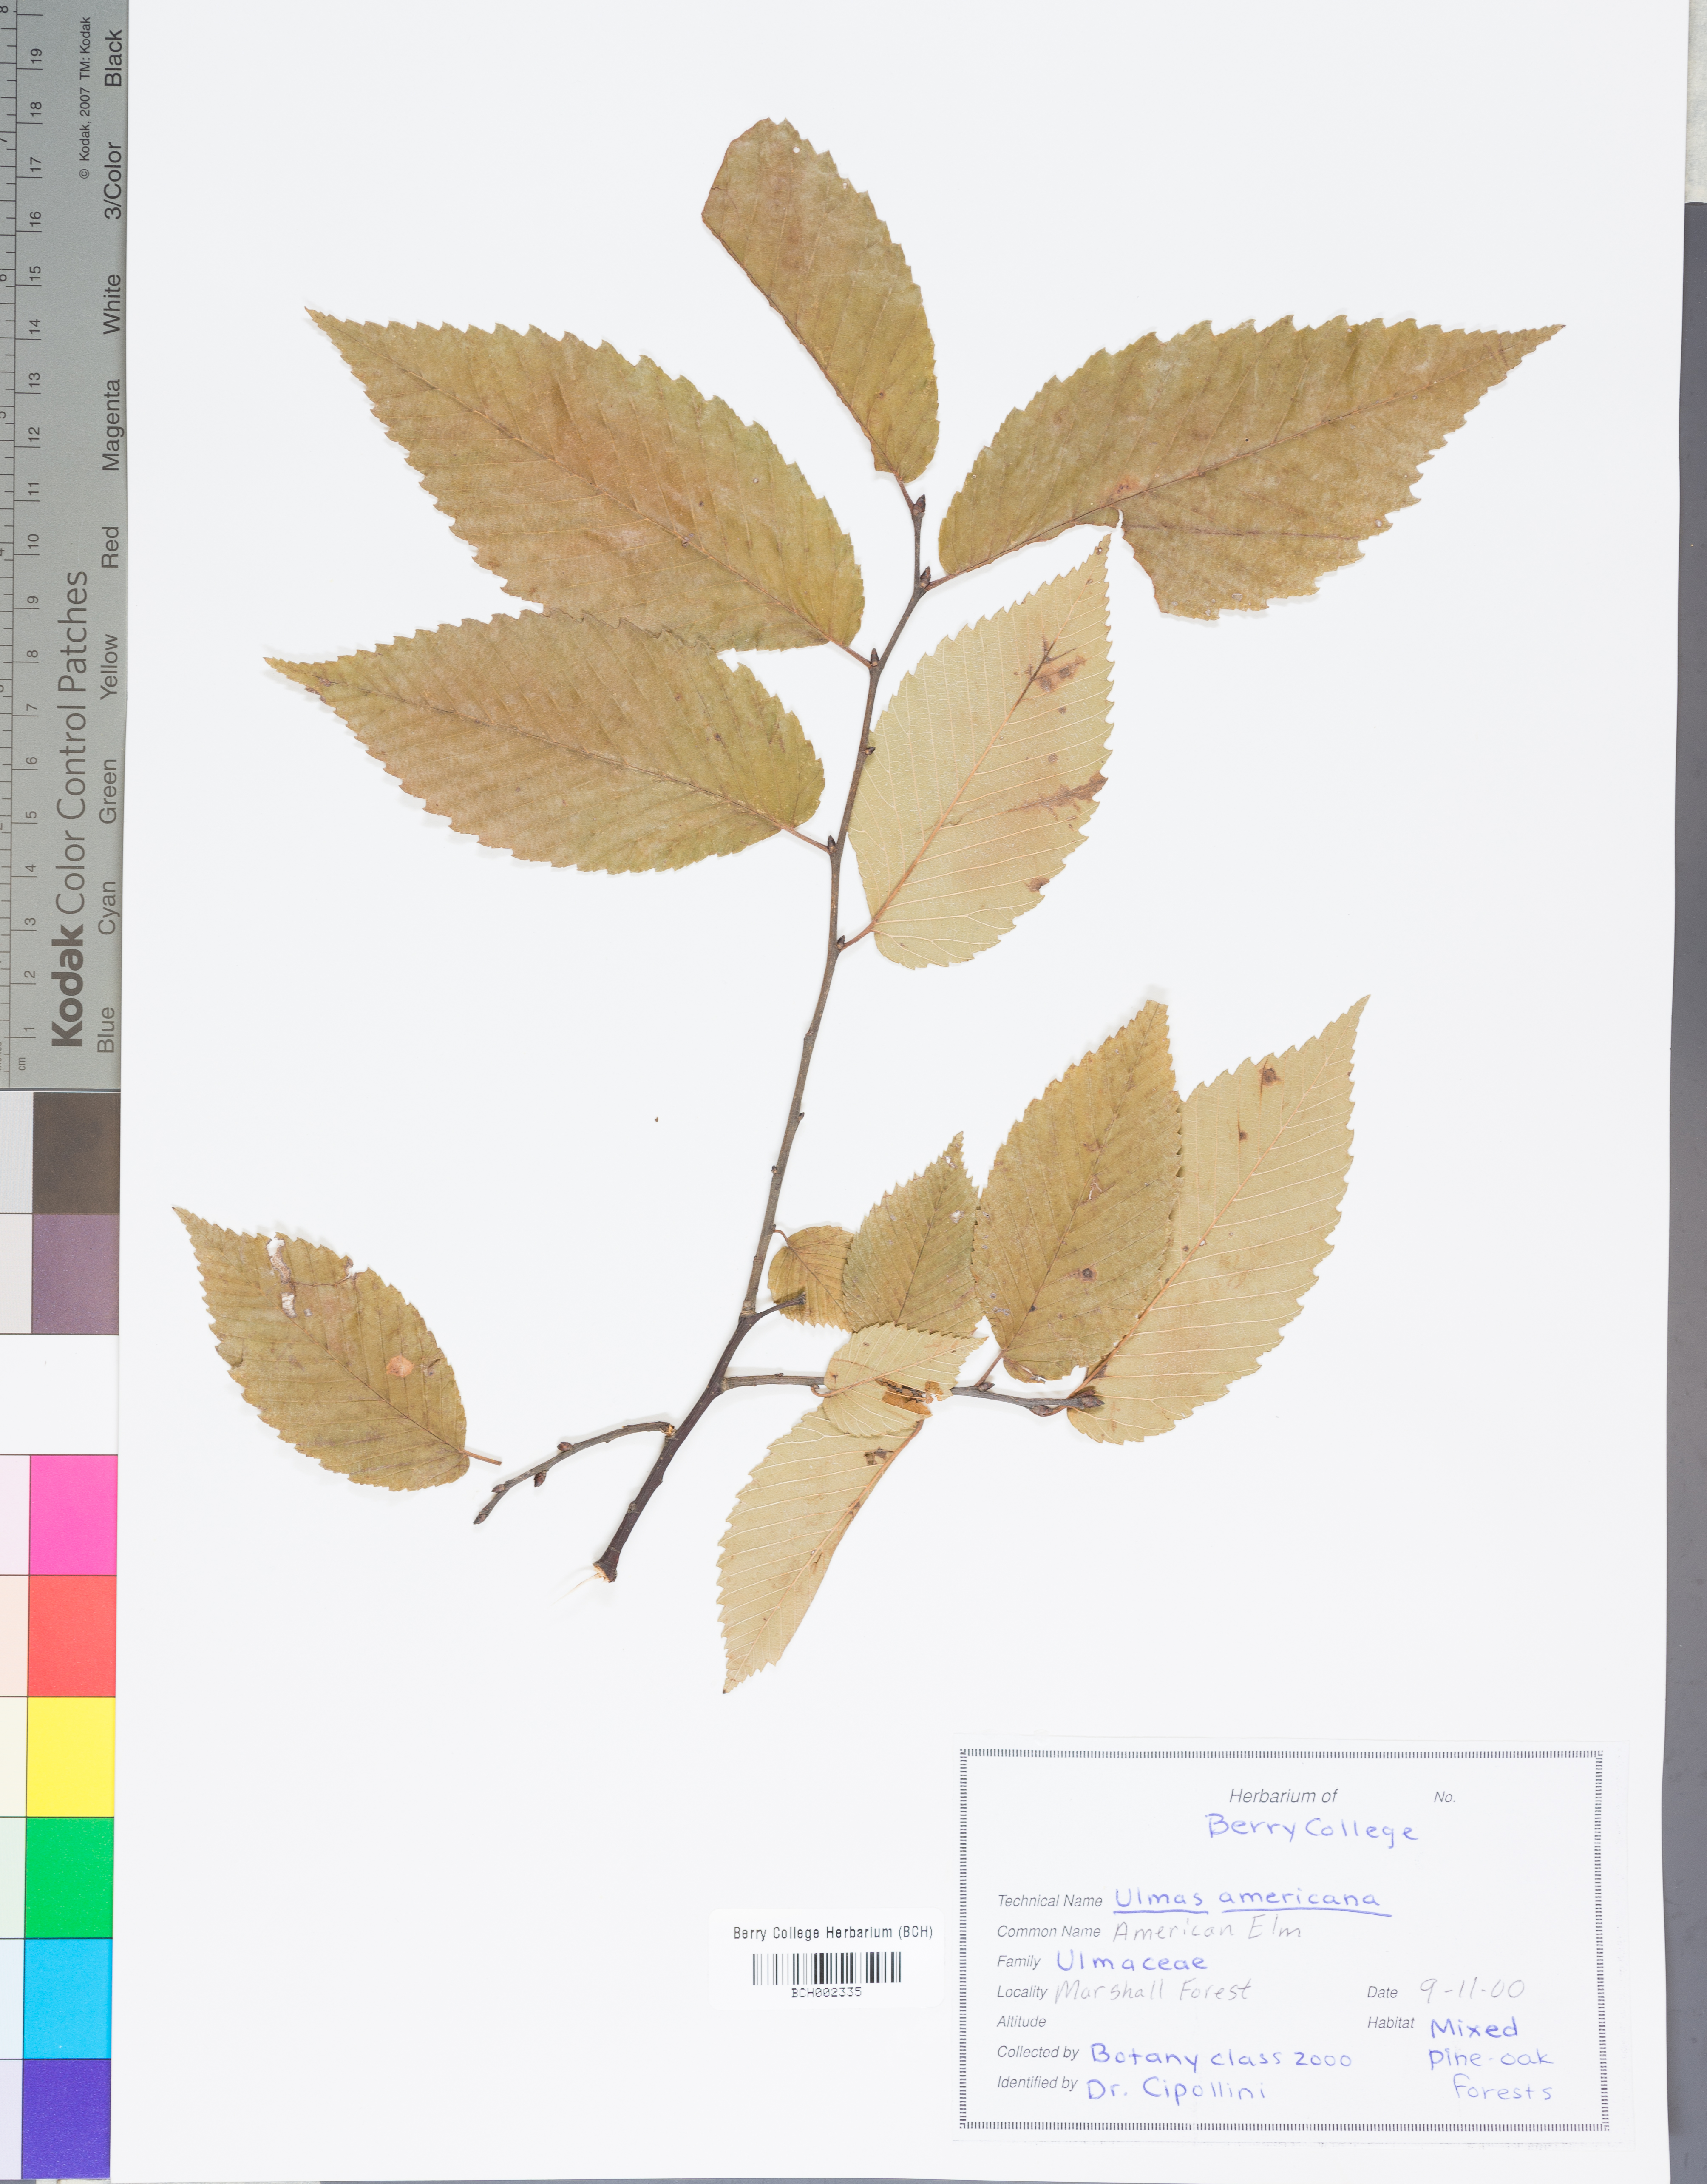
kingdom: Plantae
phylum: Tracheophyta
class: Magnoliopsida
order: Rosales
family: Ulmaceae
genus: Ulmus
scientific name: Ulmus americana
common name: American elm
